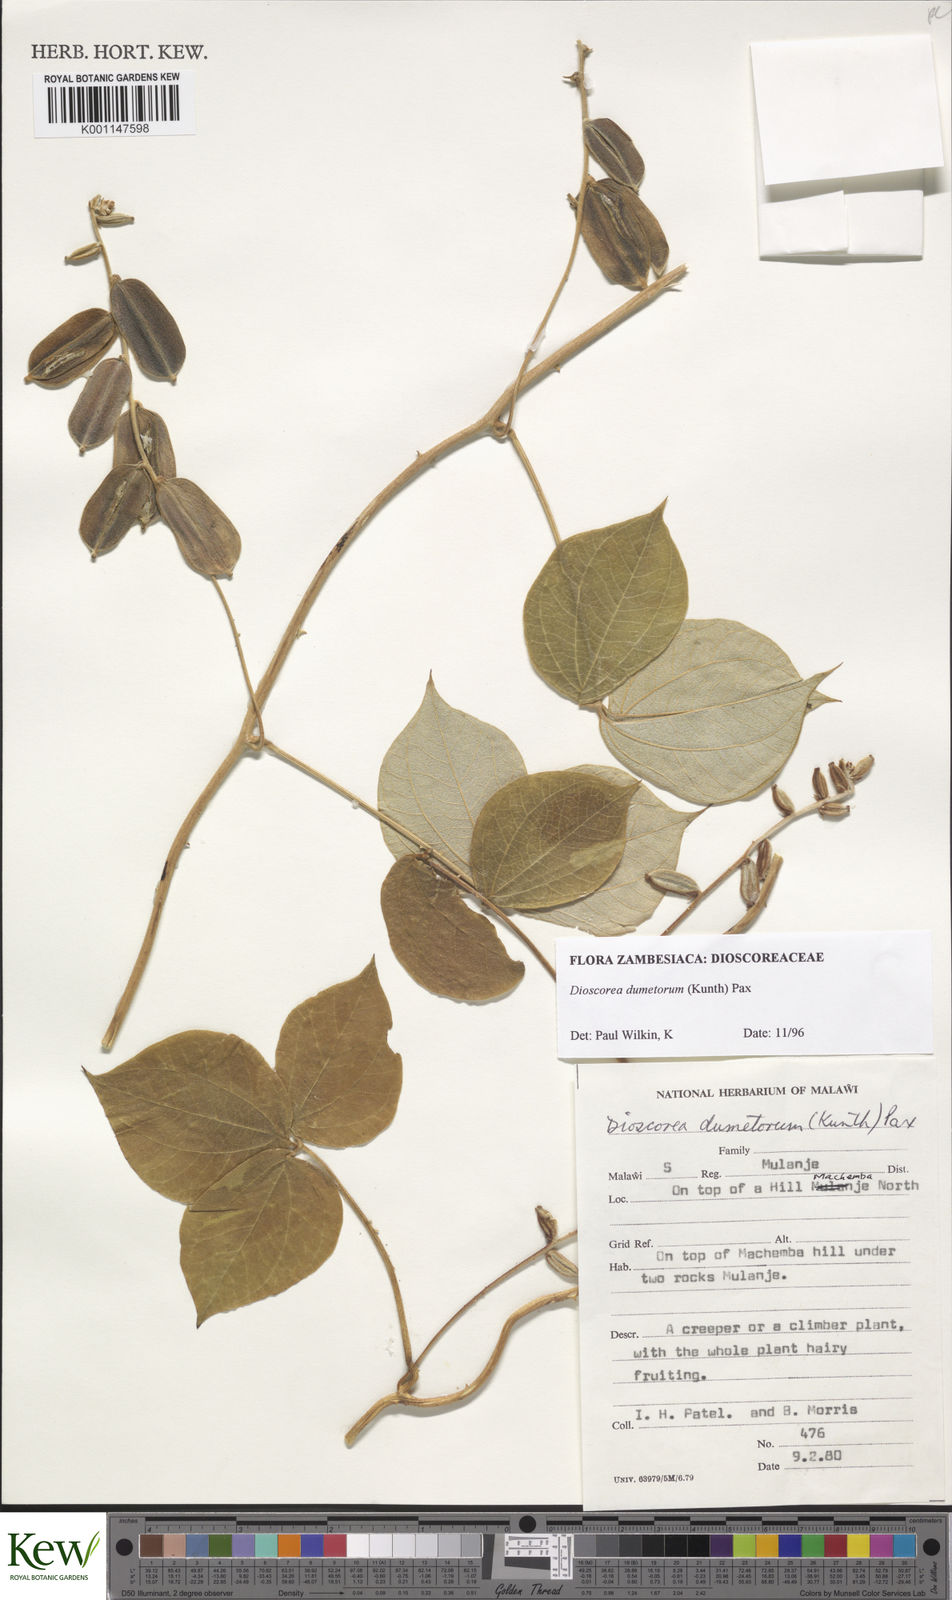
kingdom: Plantae
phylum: Tracheophyta
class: Liliopsida
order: Dioscoreales
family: Dioscoreaceae
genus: Dioscorea
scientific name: Dioscorea dumetorum
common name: African bitter yam
